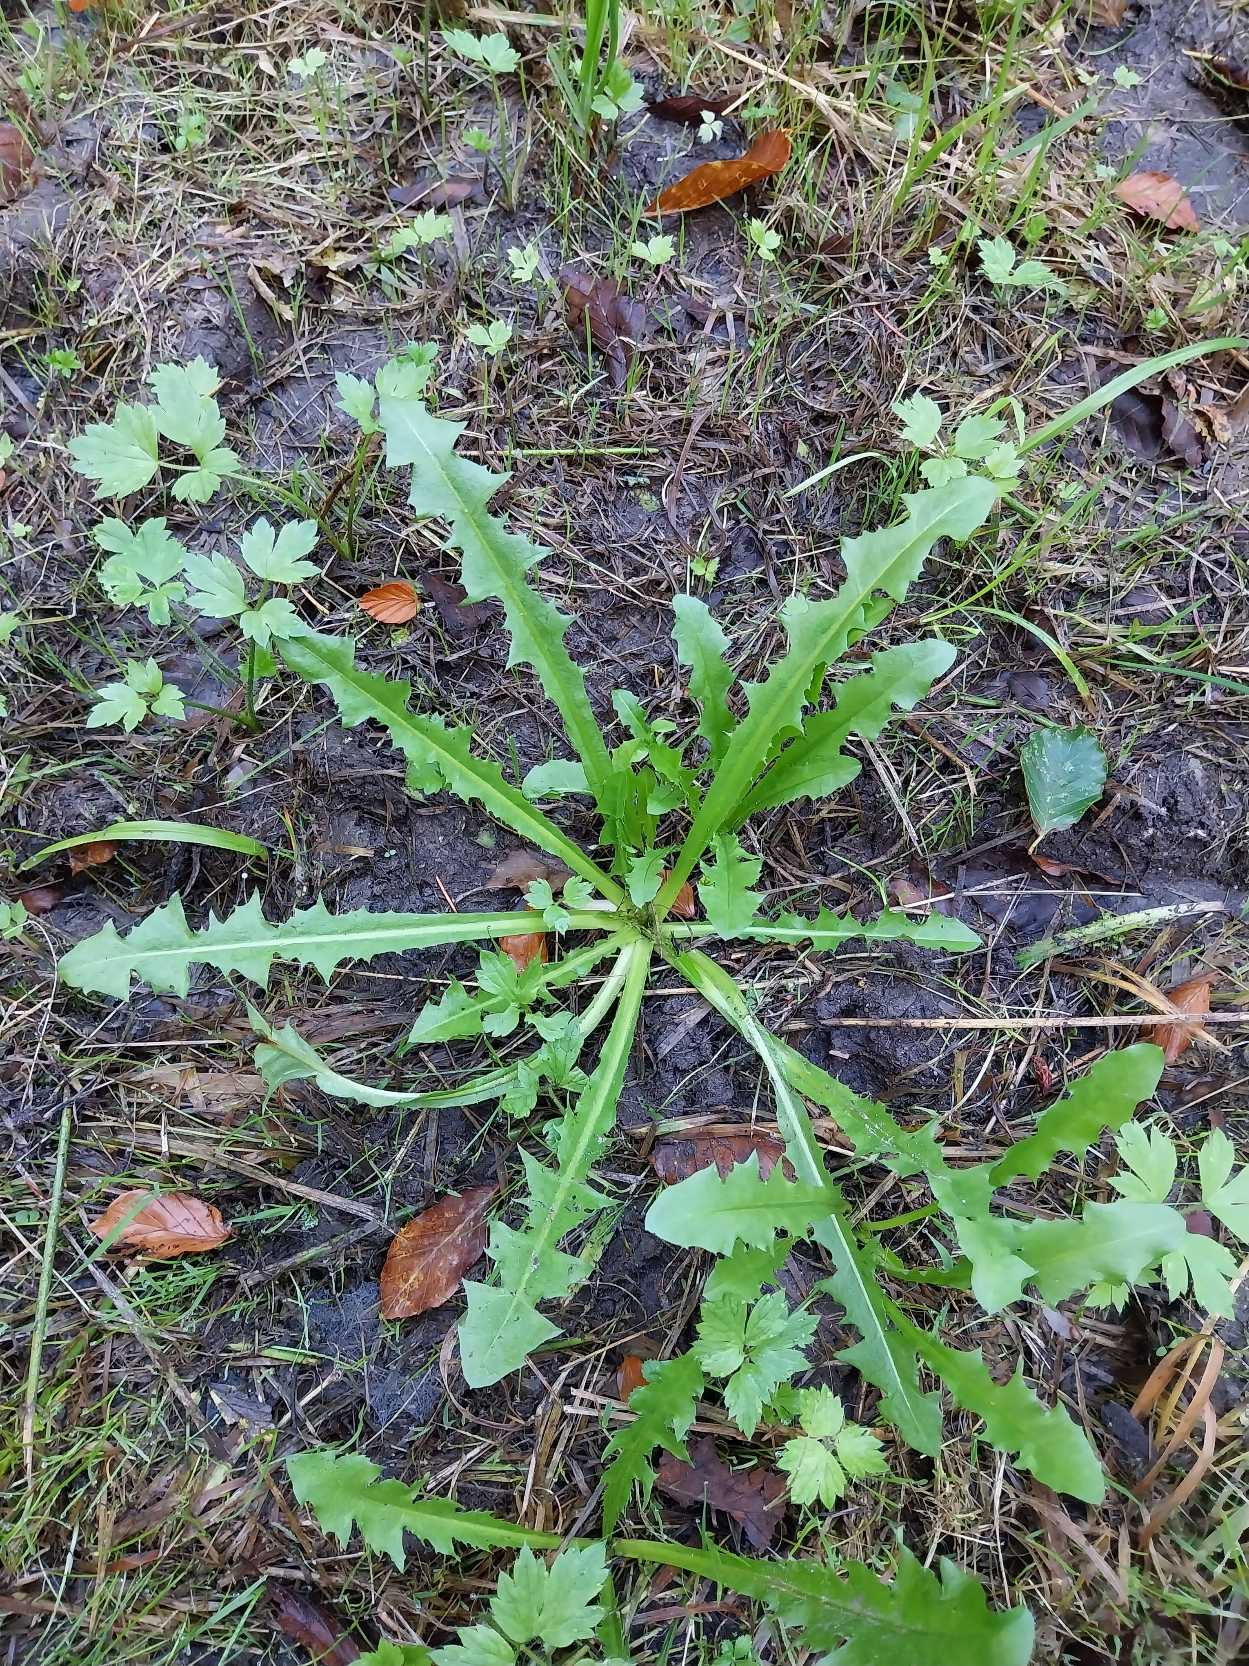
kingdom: Plantae
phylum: Tracheophyta
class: Magnoliopsida
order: Asterales
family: Asteraceae
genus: Taraxacum
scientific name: Taraxacum
